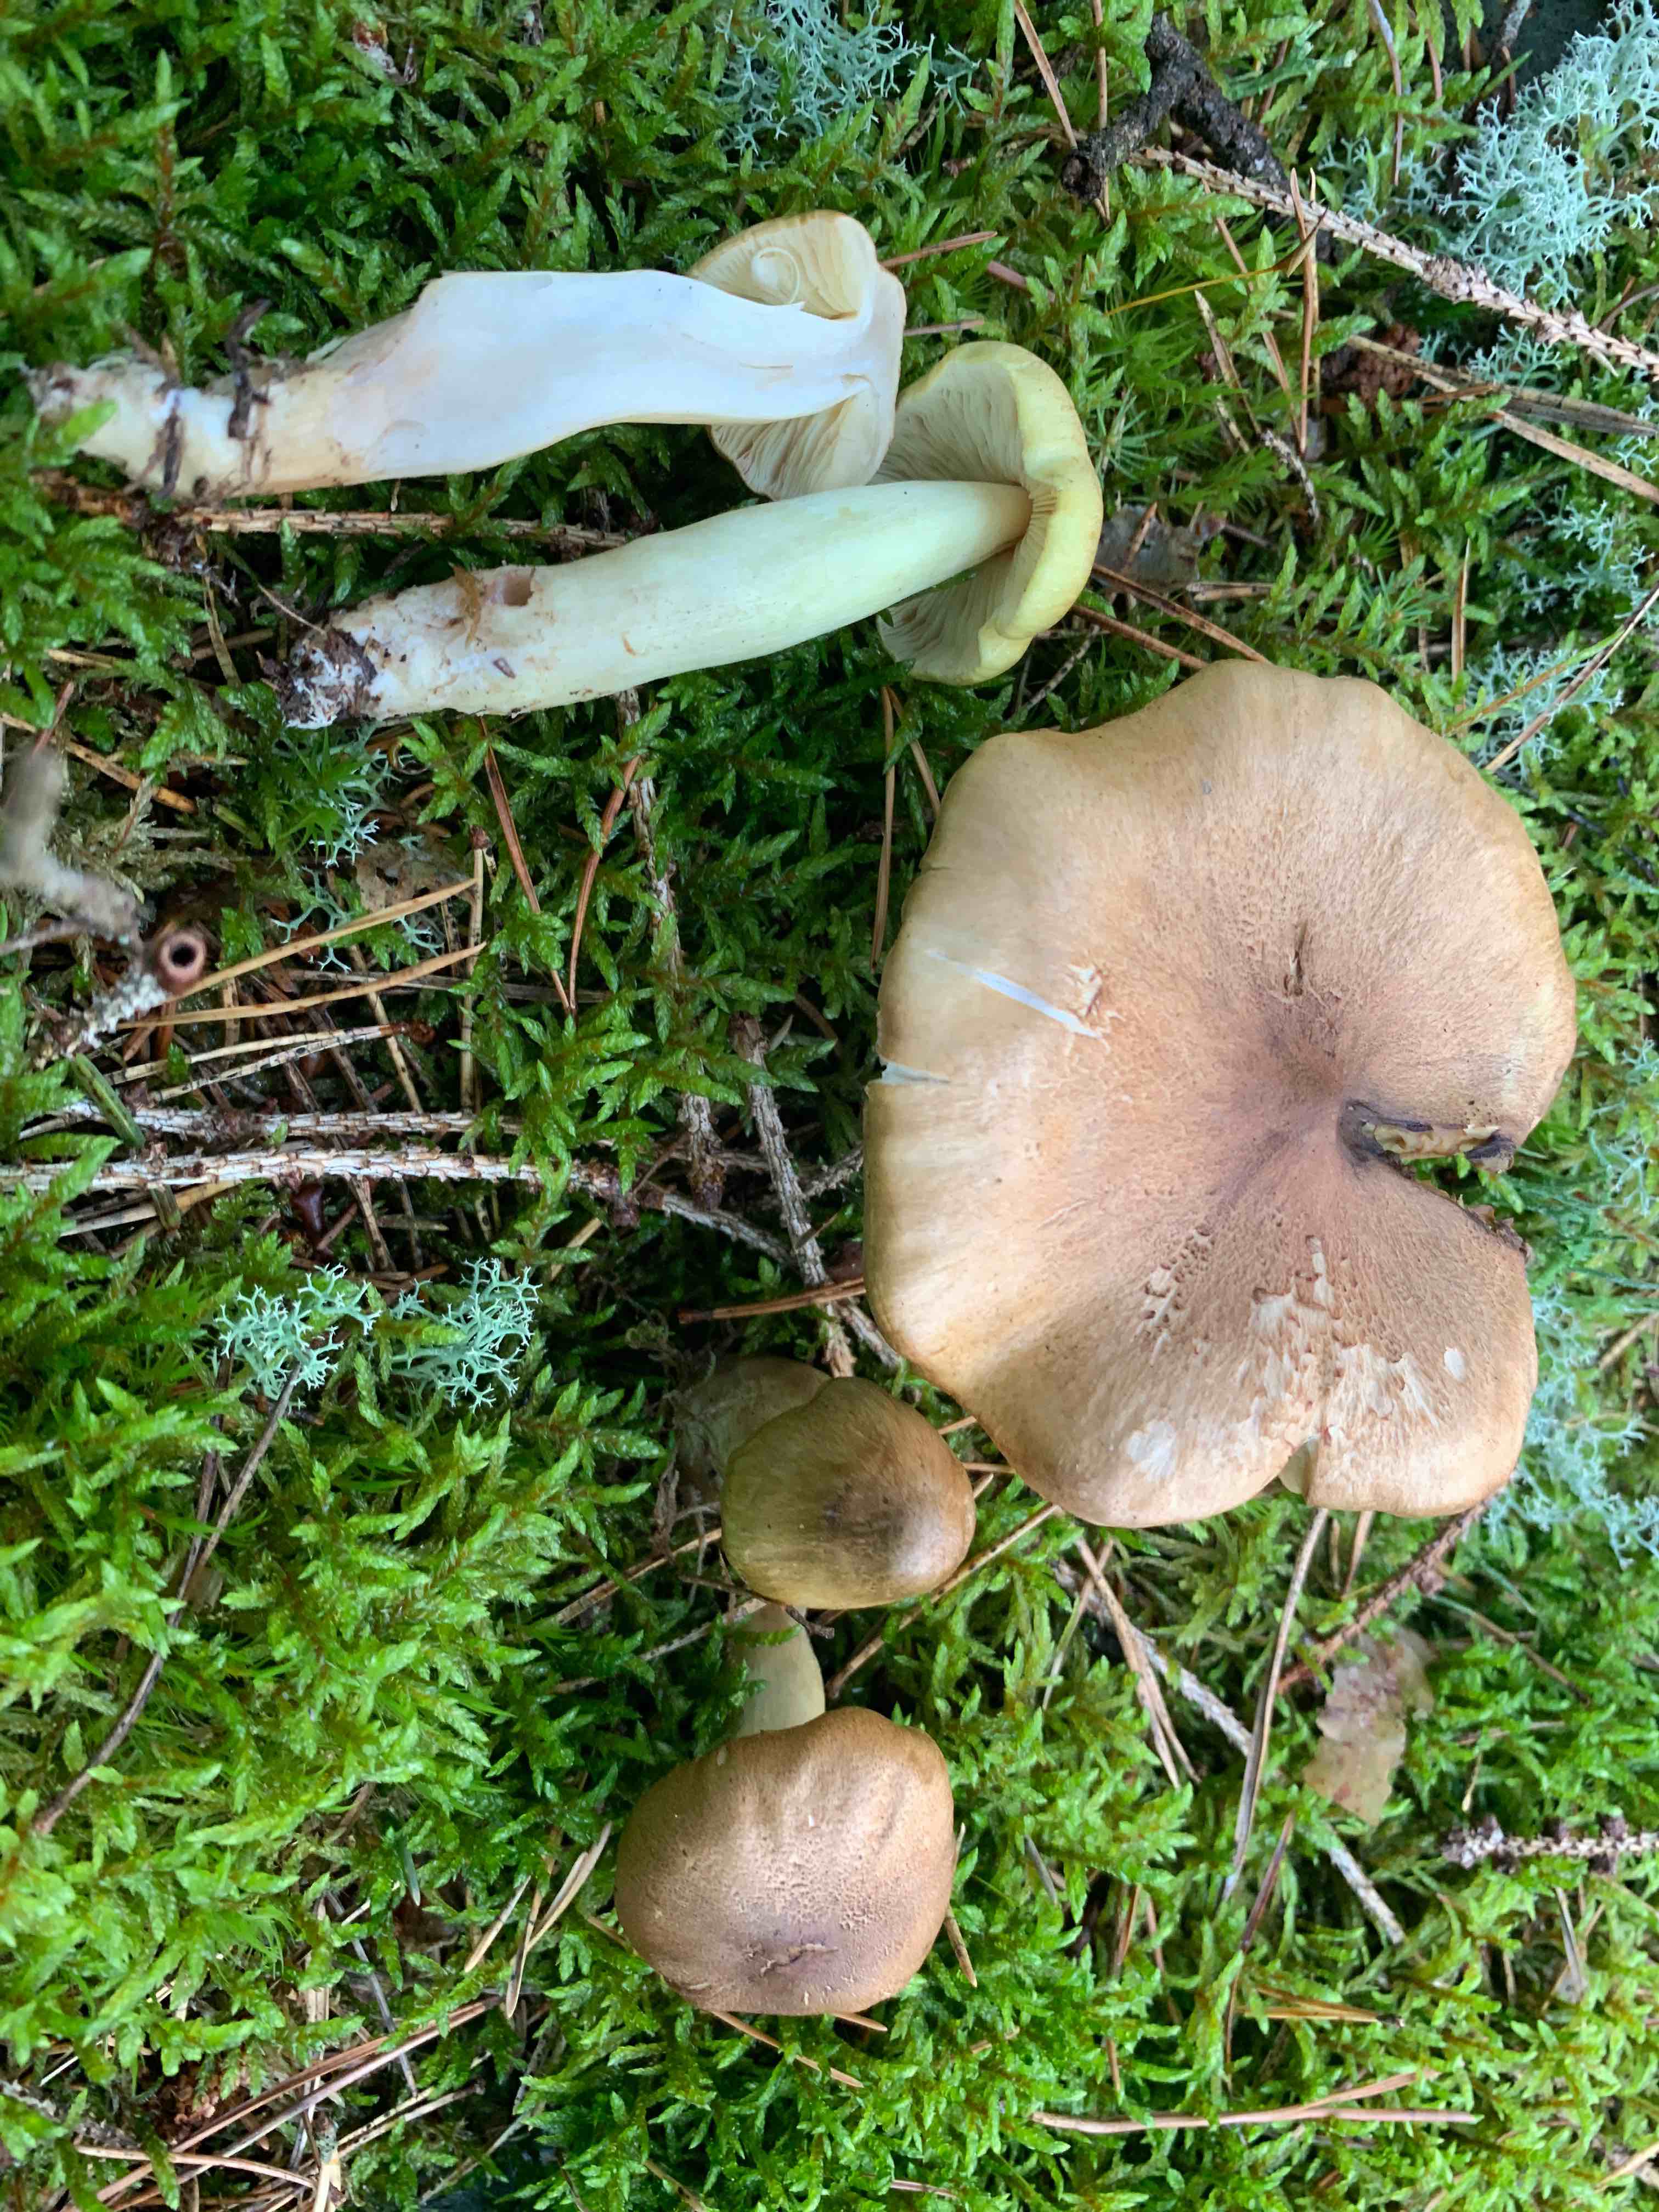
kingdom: Fungi
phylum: Basidiomycota
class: Agaricomycetes
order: Agaricales
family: Tricholomataceae
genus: Tricholoma
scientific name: Tricholoma aestuans
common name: kegle-ridderhat
